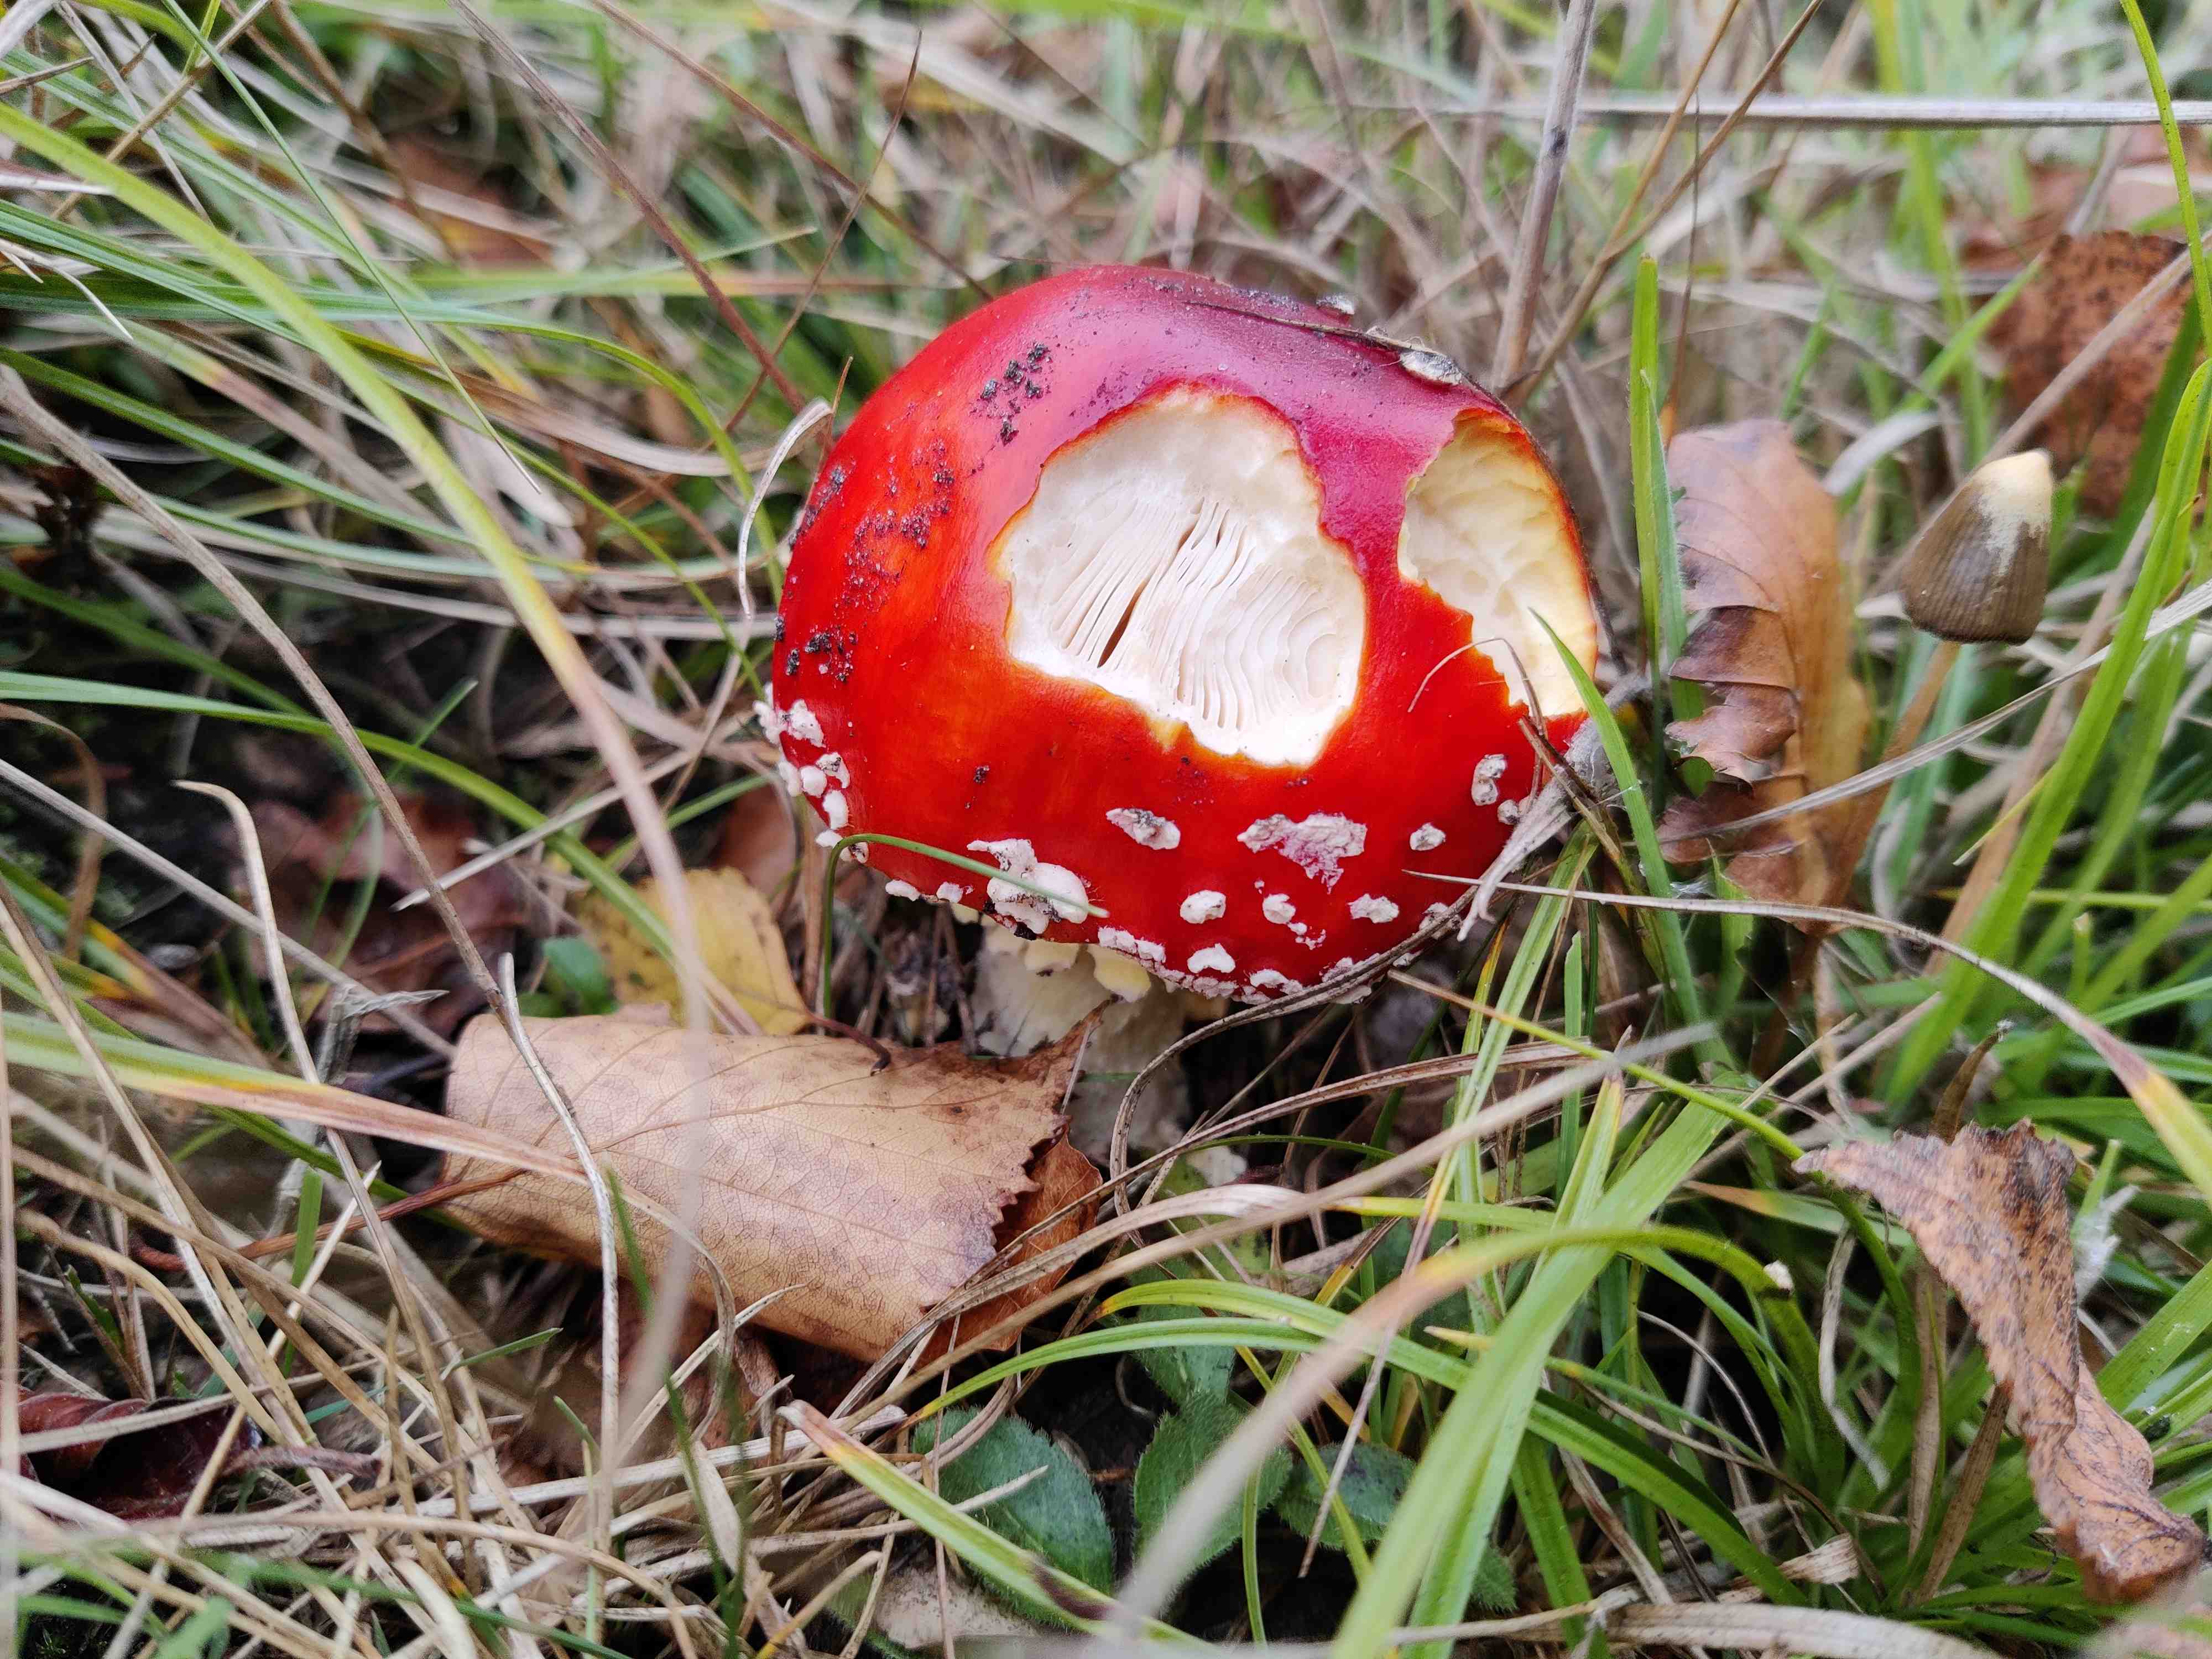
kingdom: Fungi
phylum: Basidiomycota
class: Agaricomycetes
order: Agaricales
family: Amanitaceae
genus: Amanita
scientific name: Amanita muscaria
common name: rød fluesvamp
